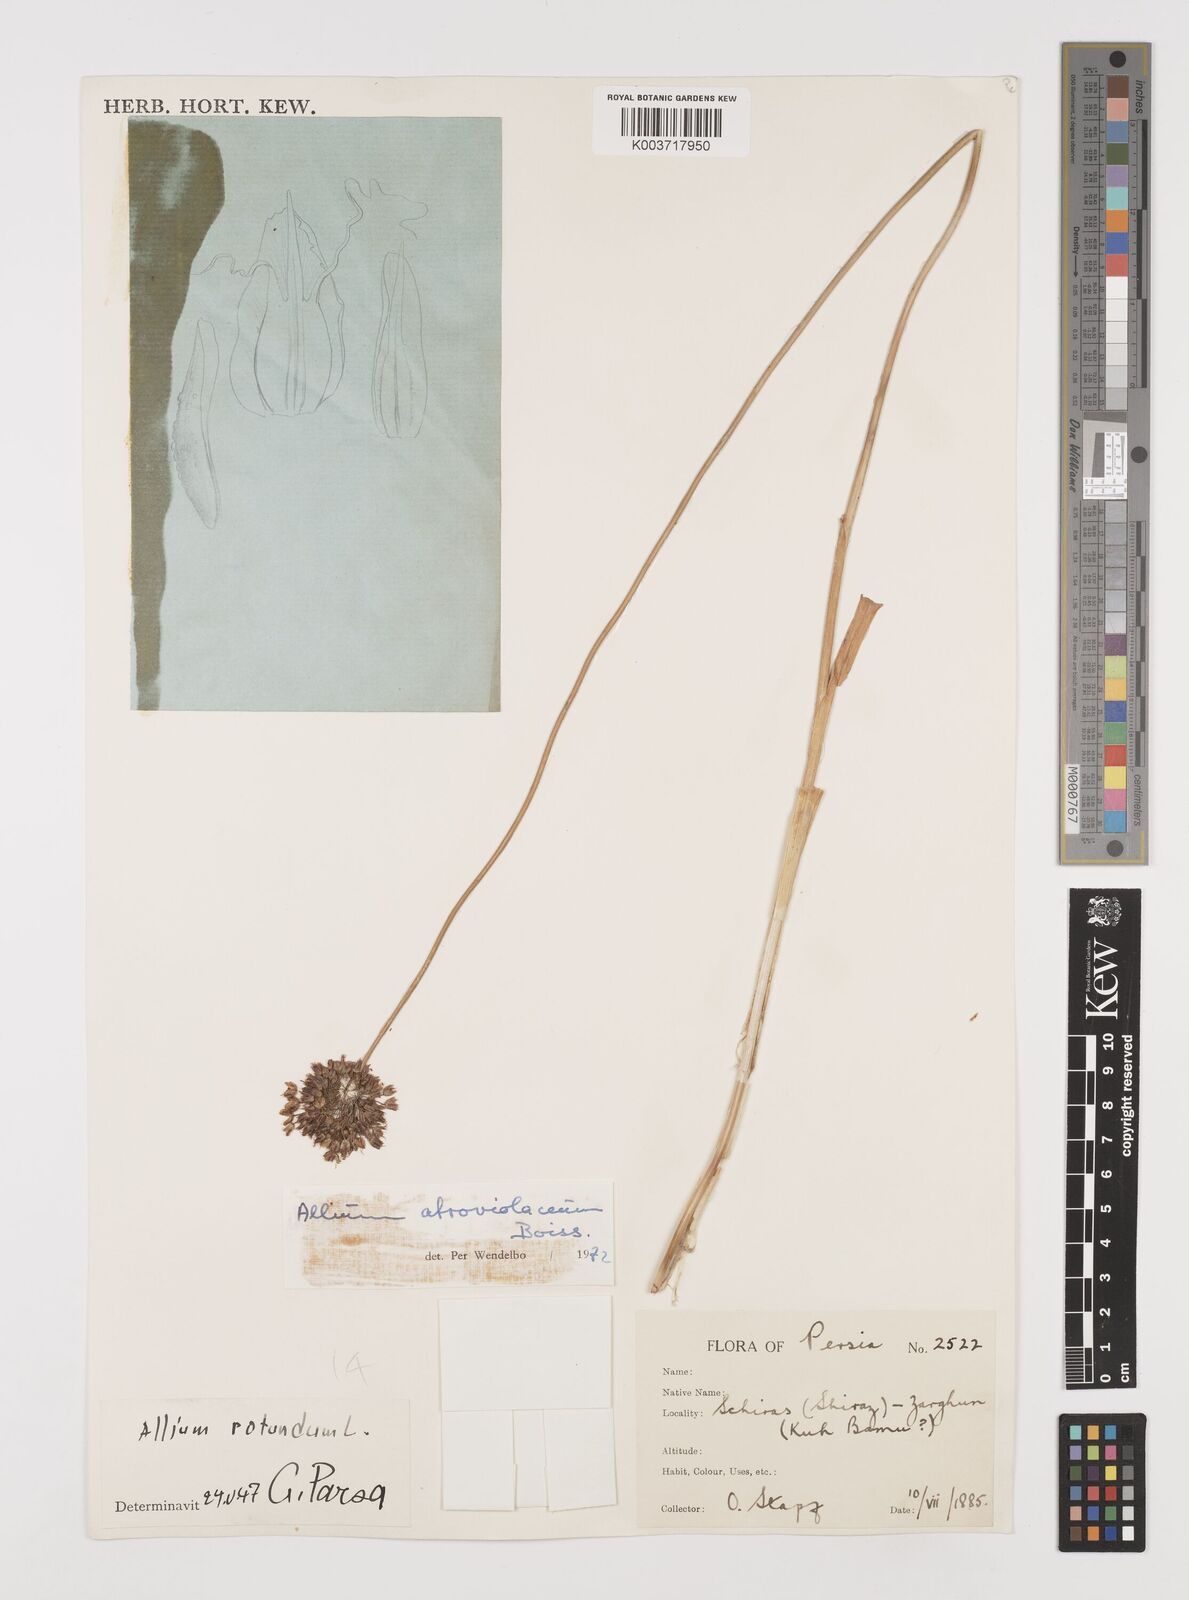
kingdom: Plantae
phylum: Tracheophyta
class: Liliopsida
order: Asparagales
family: Amaryllidaceae
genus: Allium
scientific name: Allium atroviolaceum
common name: Broadleaf wild leek
